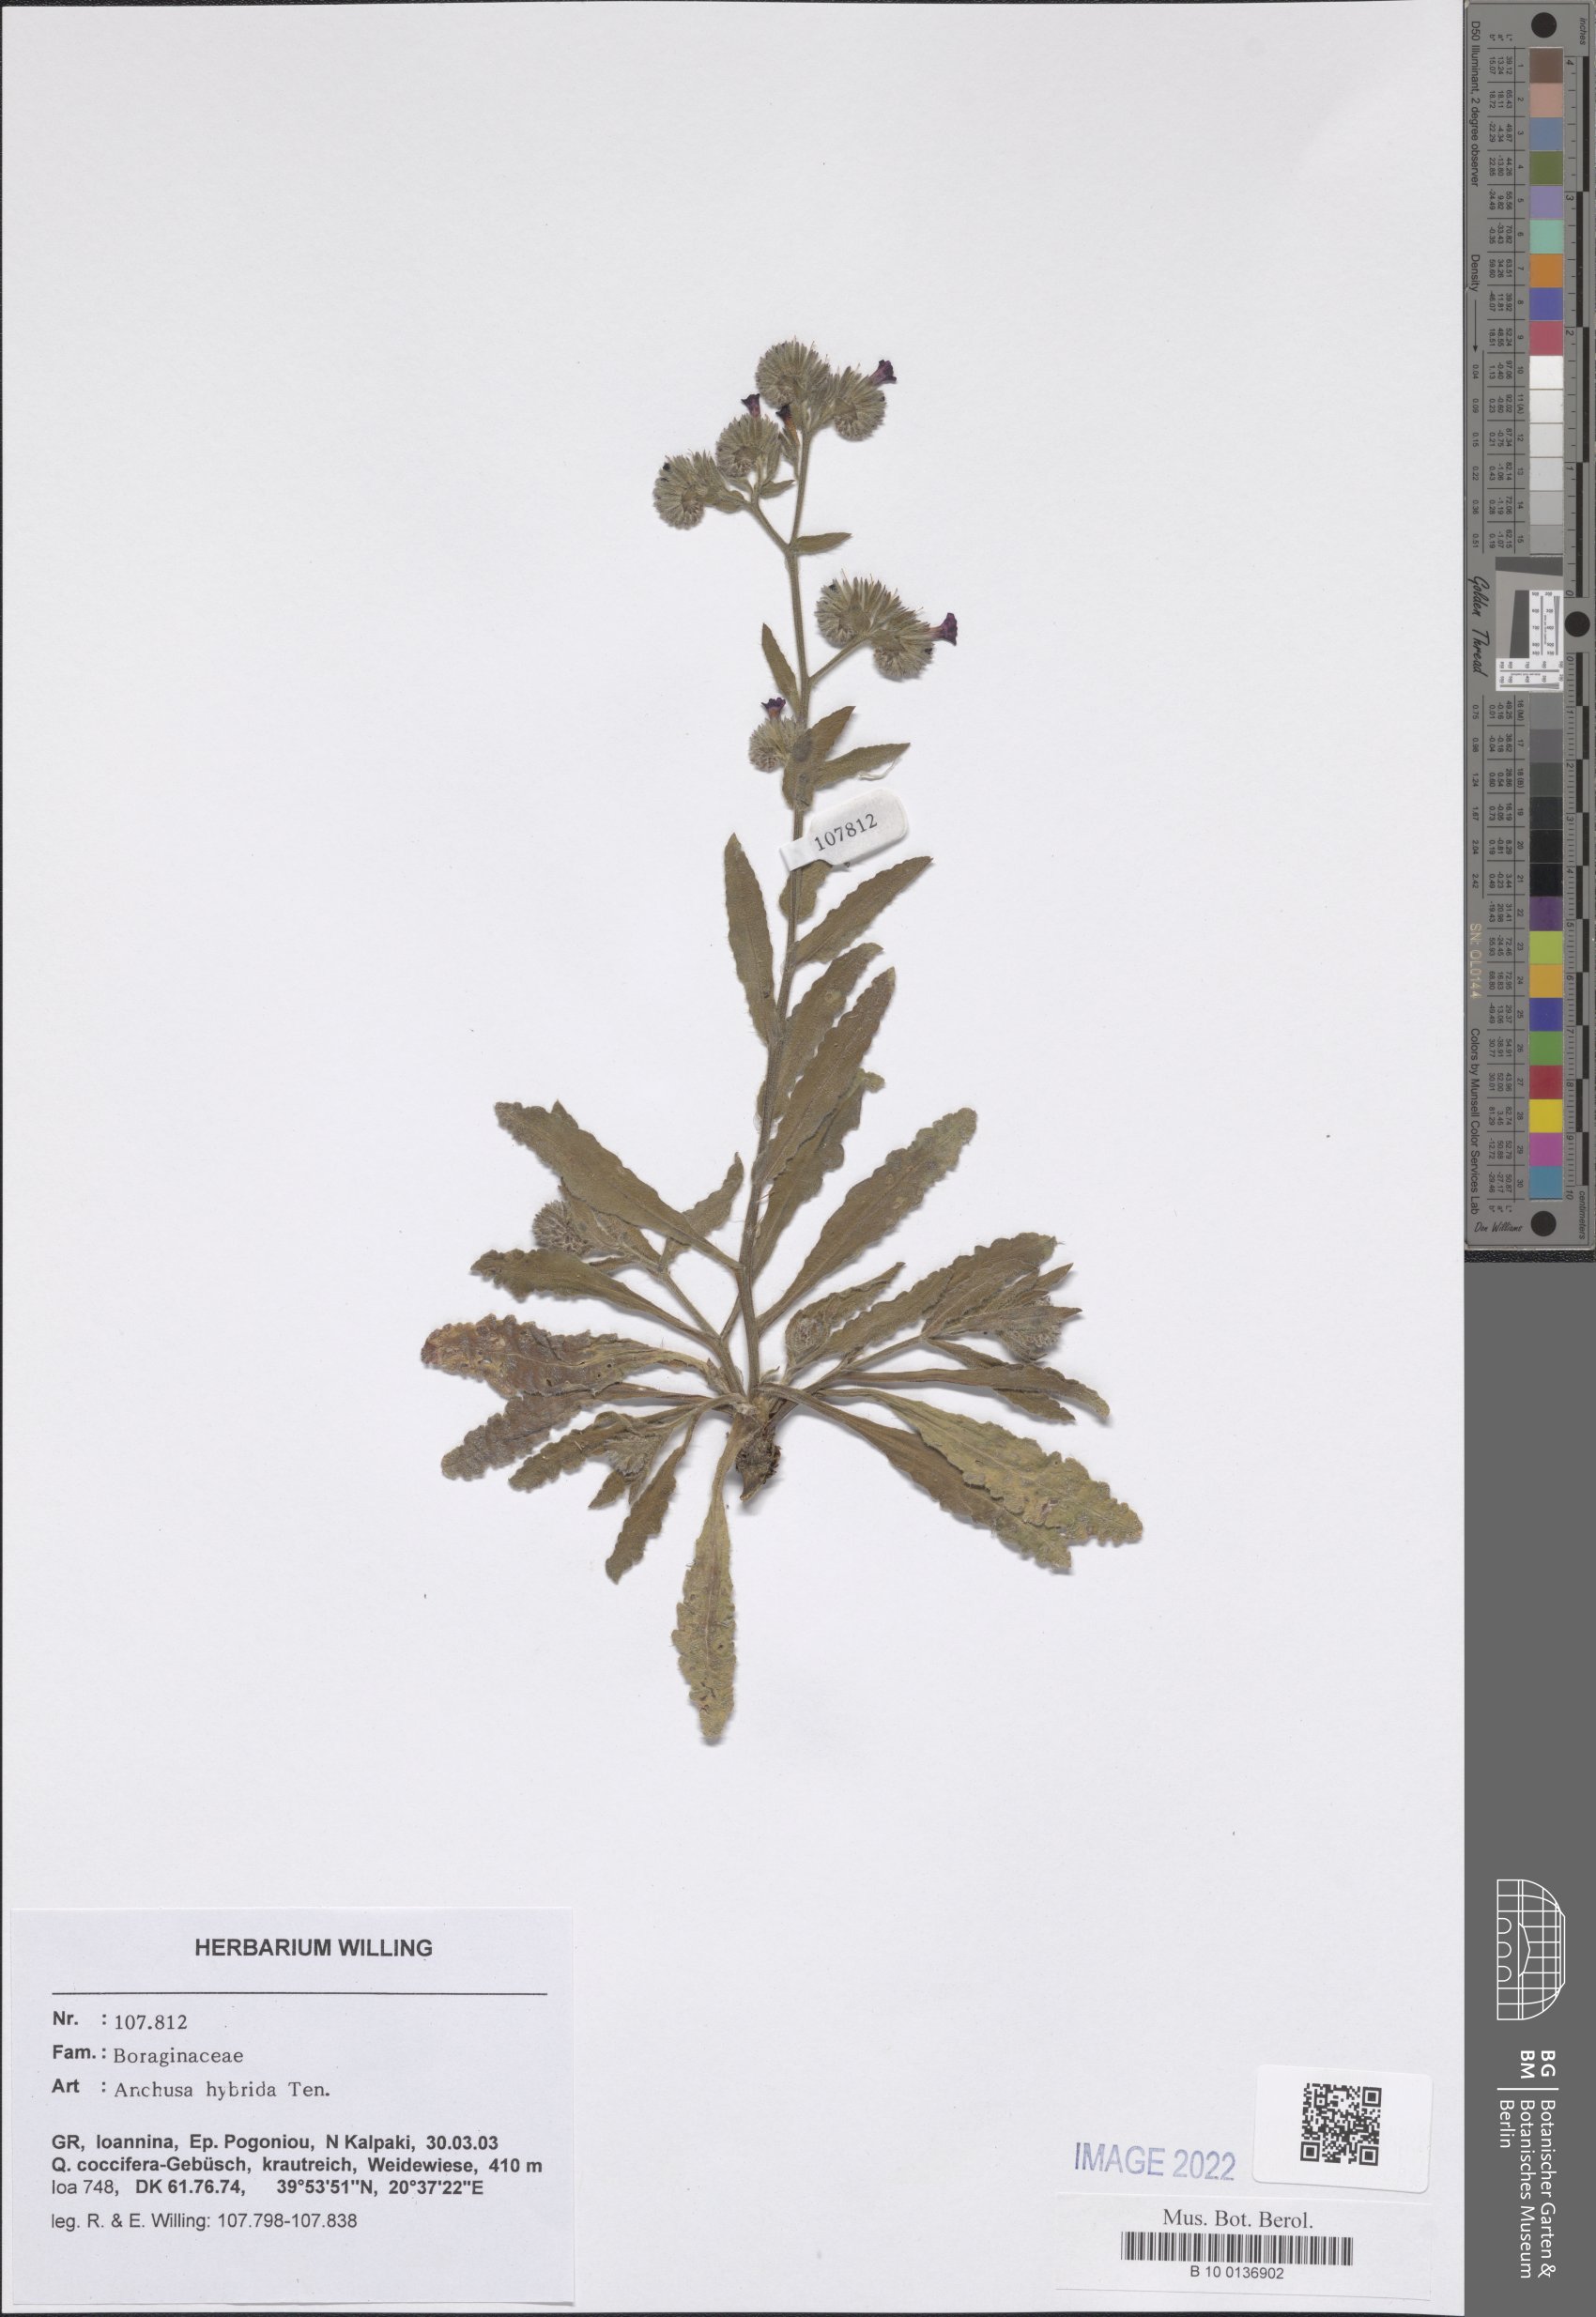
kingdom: Plantae
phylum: Tracheophyta
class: Magnoliopsida
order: Boraginales
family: Boraginaceae
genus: Anchusa
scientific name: Anchusa hybrida
